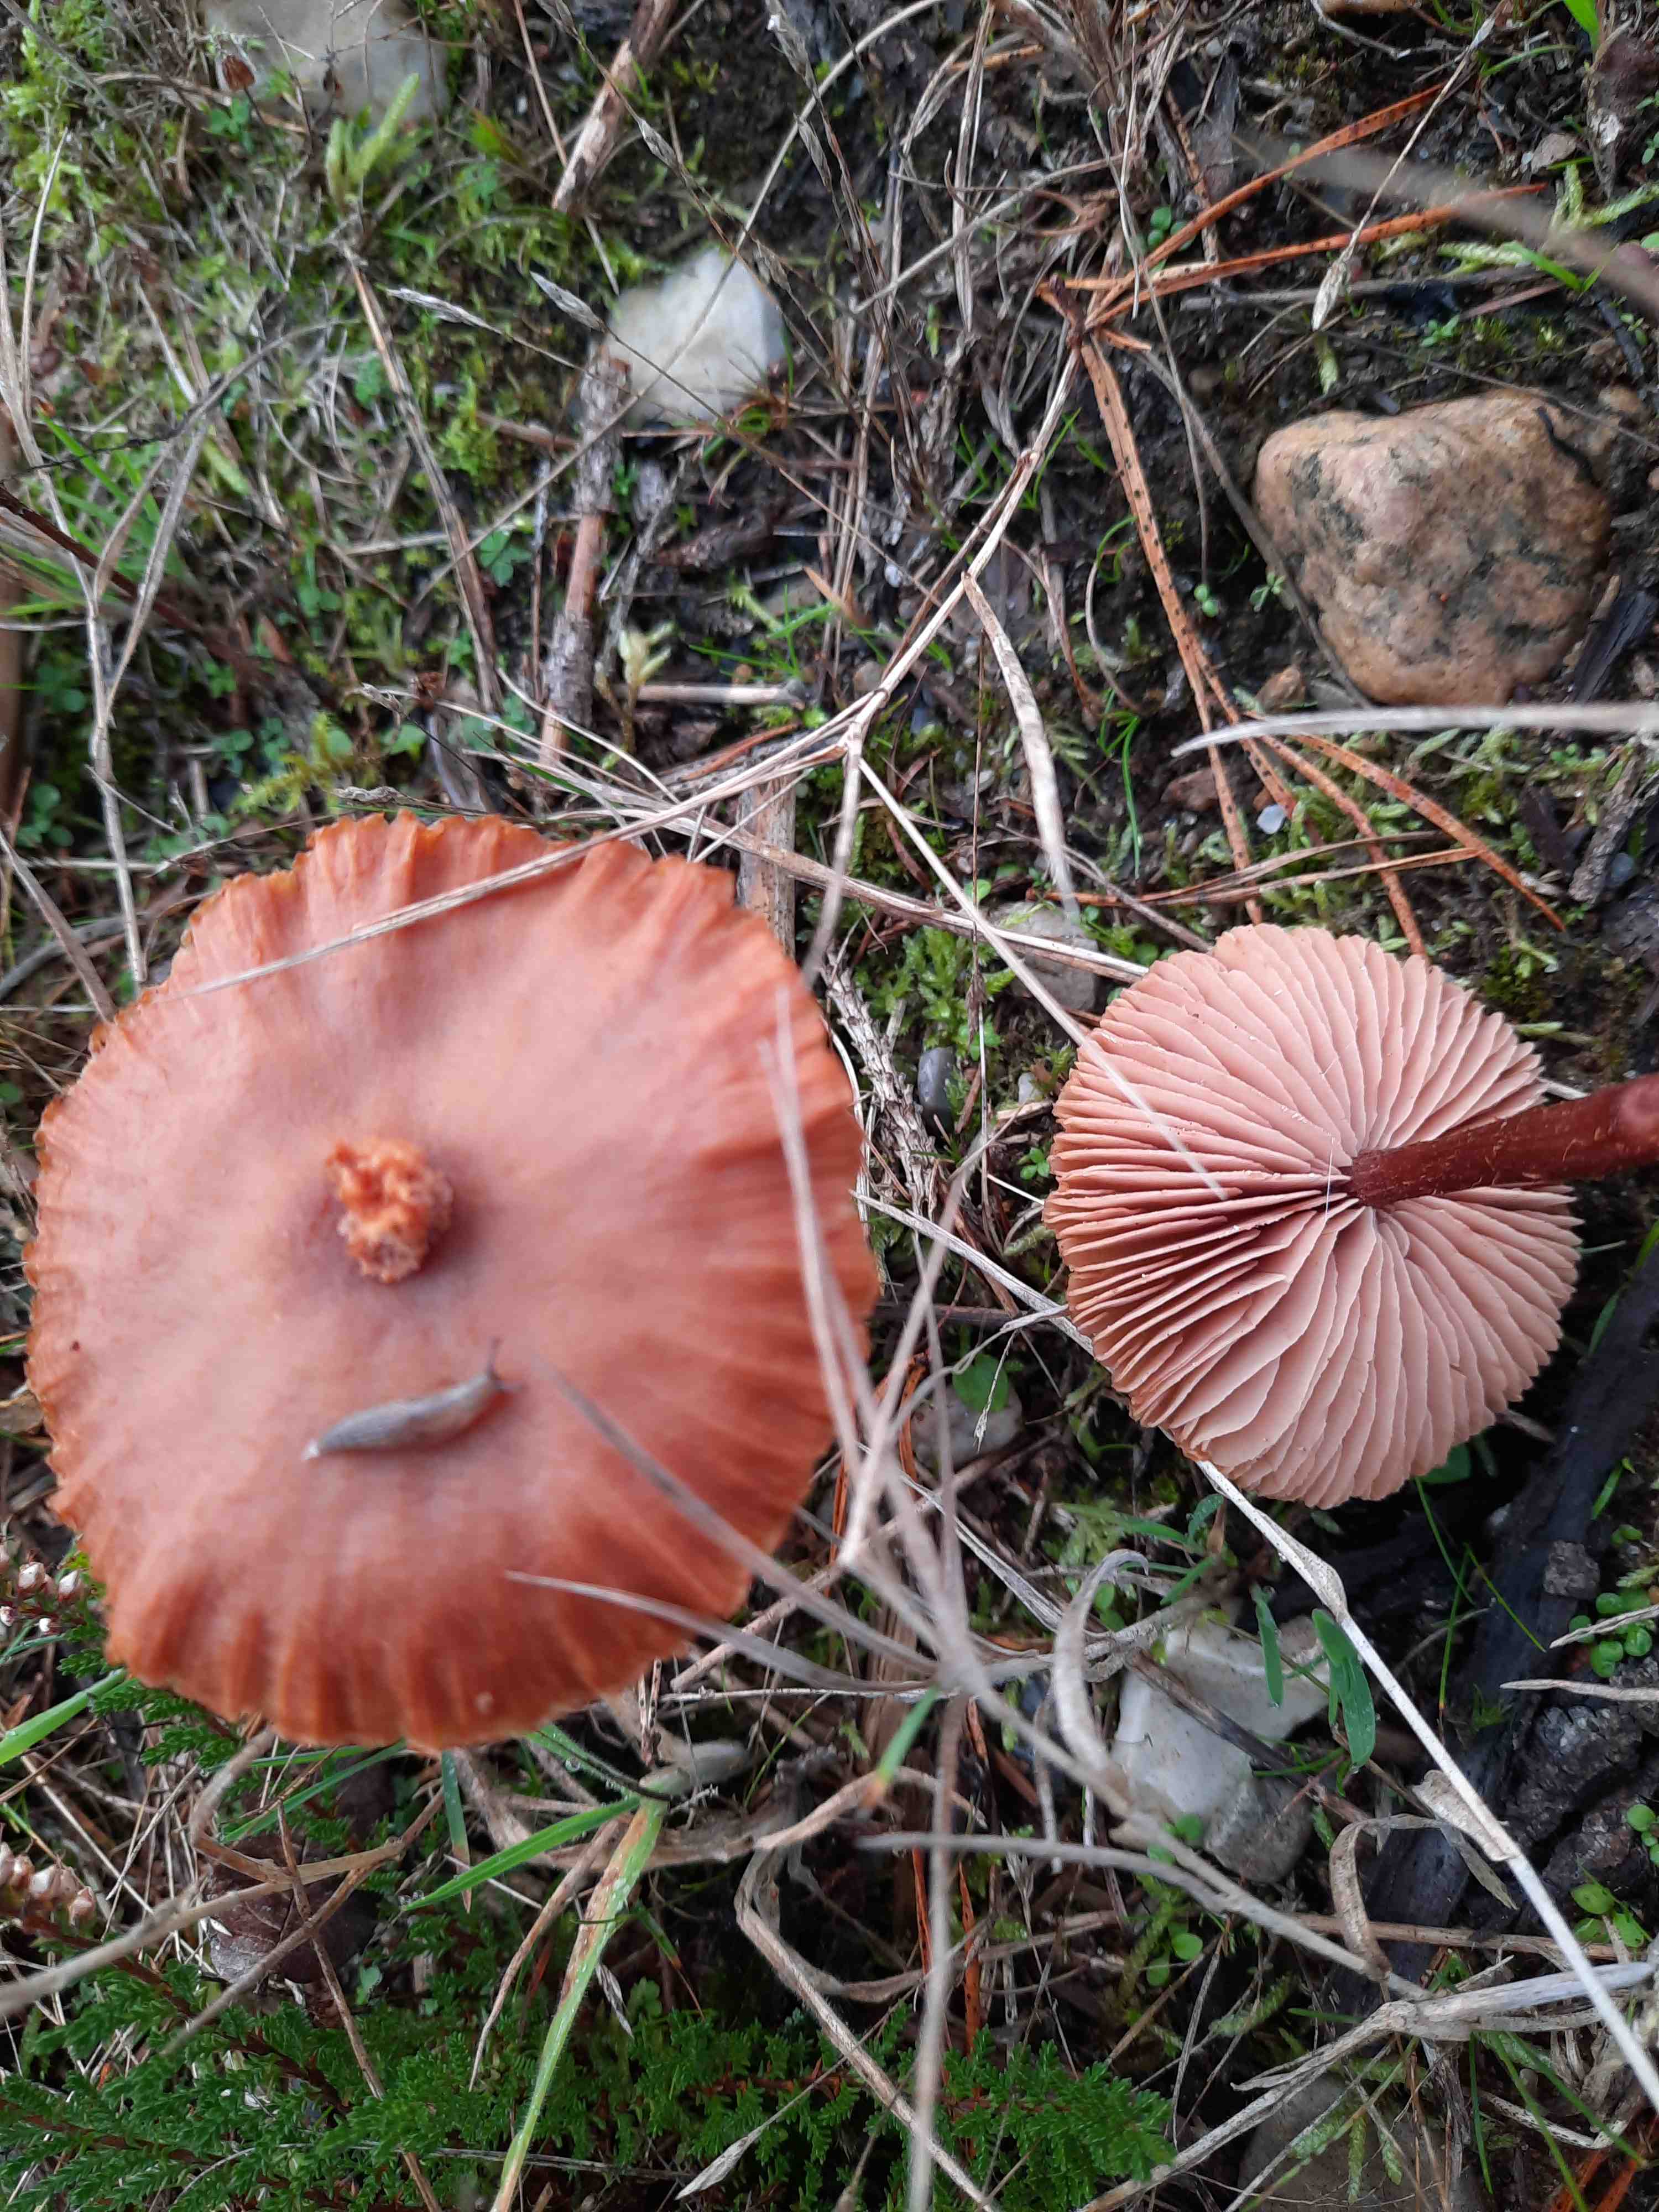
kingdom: Fungi
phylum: Basidiomycota
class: Agaricomycetes
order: Agaricales
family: Hydnangiaceae
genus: Laccaria
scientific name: Laccaria proxima
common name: stor ametysthat
